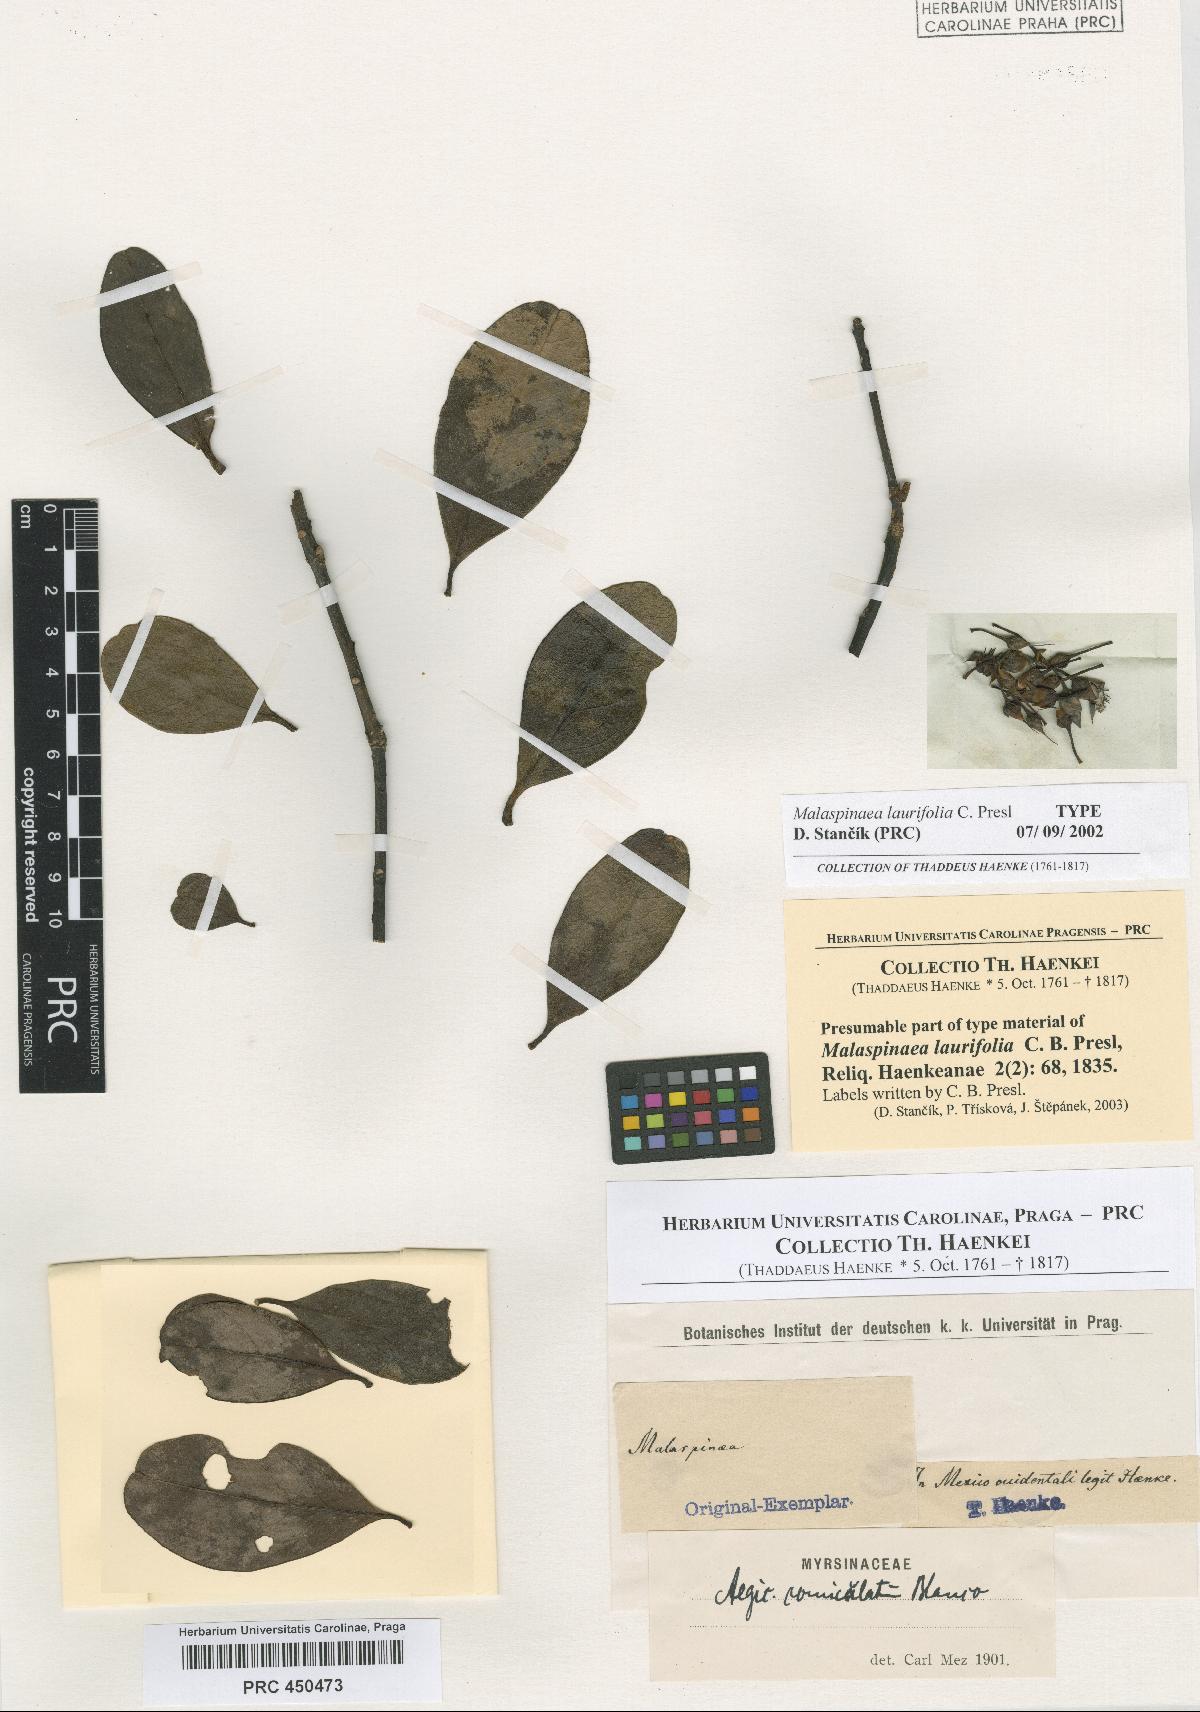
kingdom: Plantae
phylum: Tracheophyta
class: Magnoliopsida
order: Ericales
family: Primulaceae
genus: Aegiceras
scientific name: Aegiceras corniculatum
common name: River mangrove
